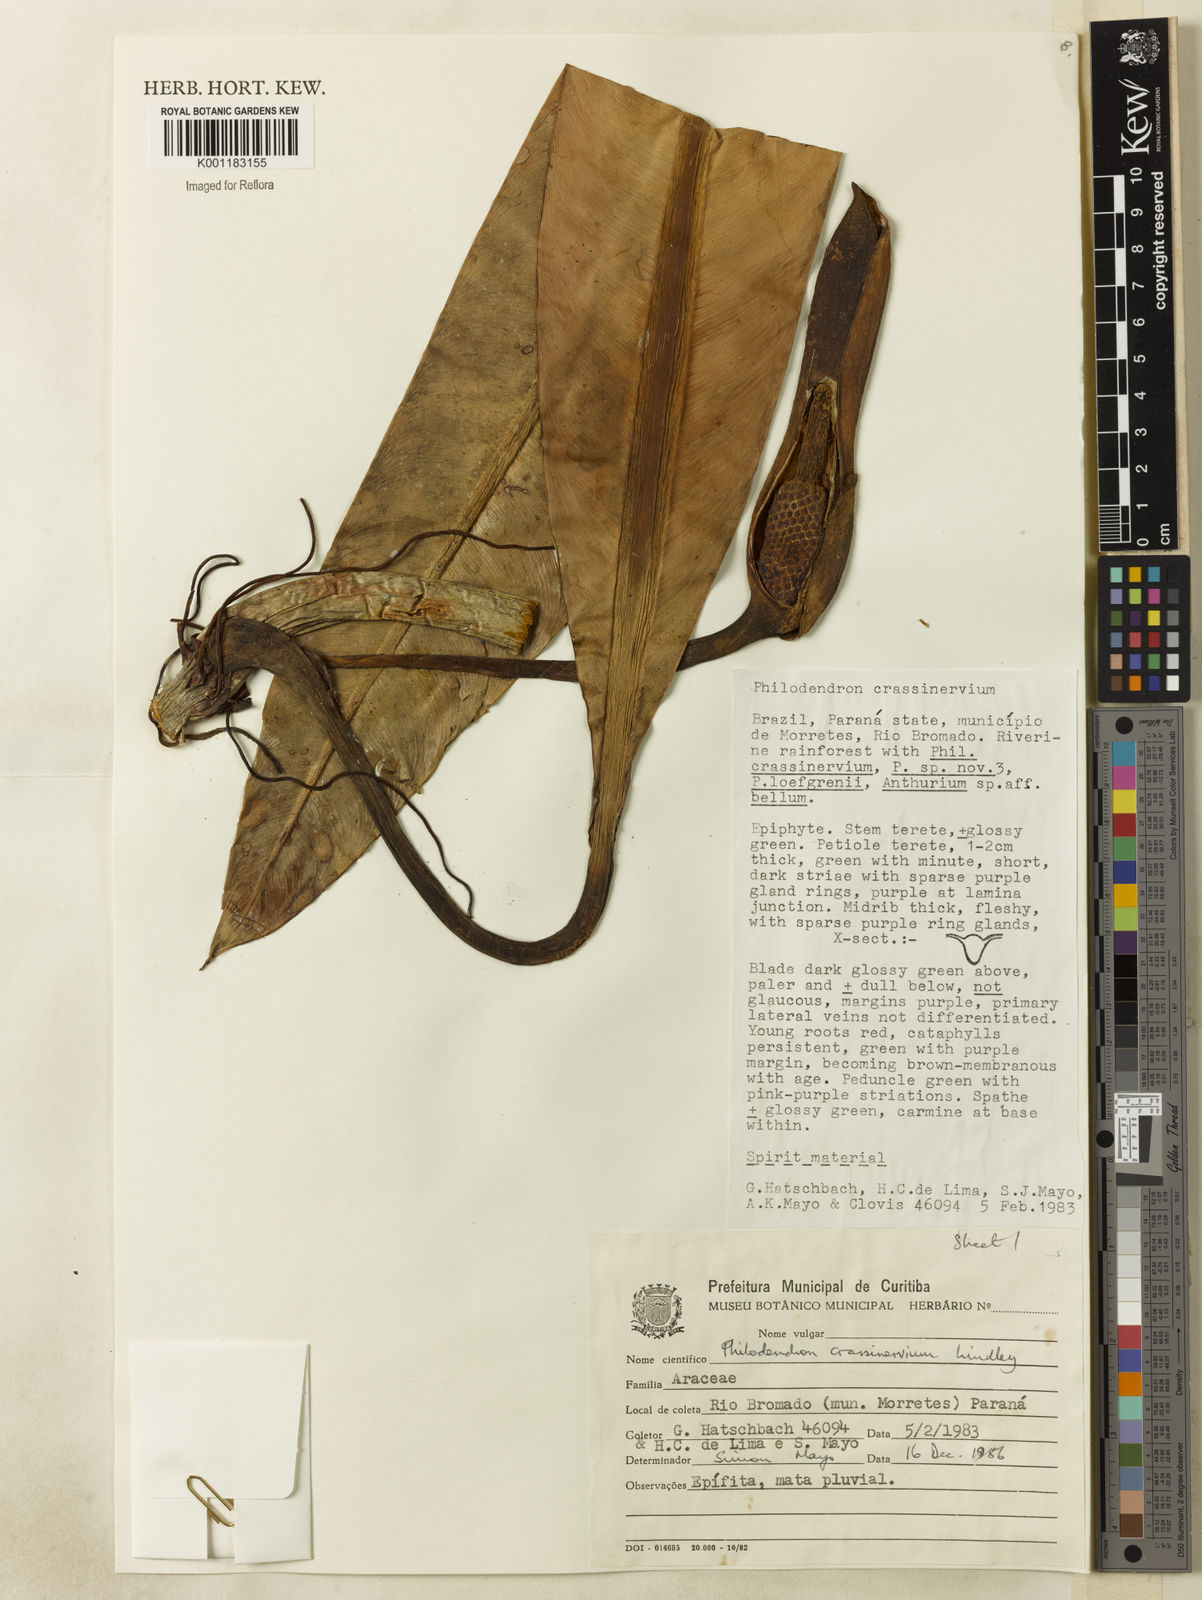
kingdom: Plantae
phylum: Tracheophyta
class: Liliopsida
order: Alismatales
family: Araceae
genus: Philodendron
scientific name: Philodendron crassinervium
